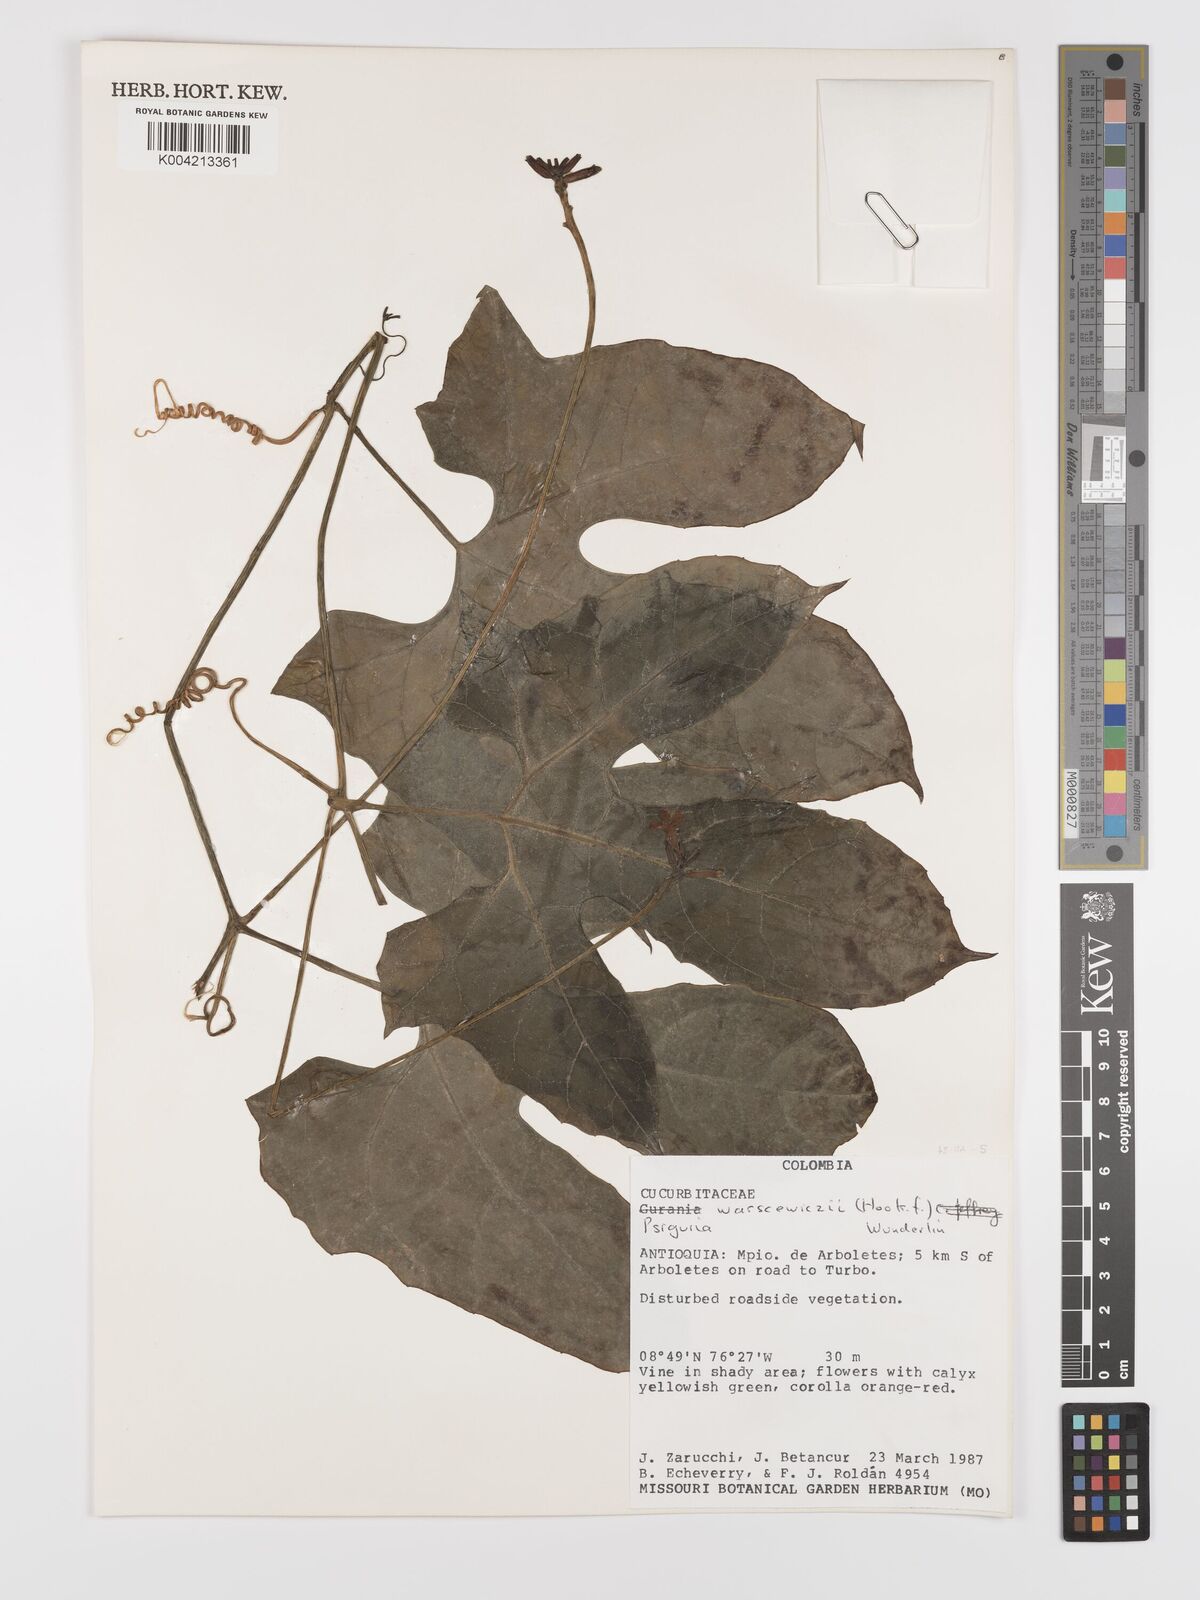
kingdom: Plantae
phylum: Tracheophyta
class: Magnoliopsida
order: Cucurbitales
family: Cucurbitaceae
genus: Psiguria
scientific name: Psiguria warscewiczii
